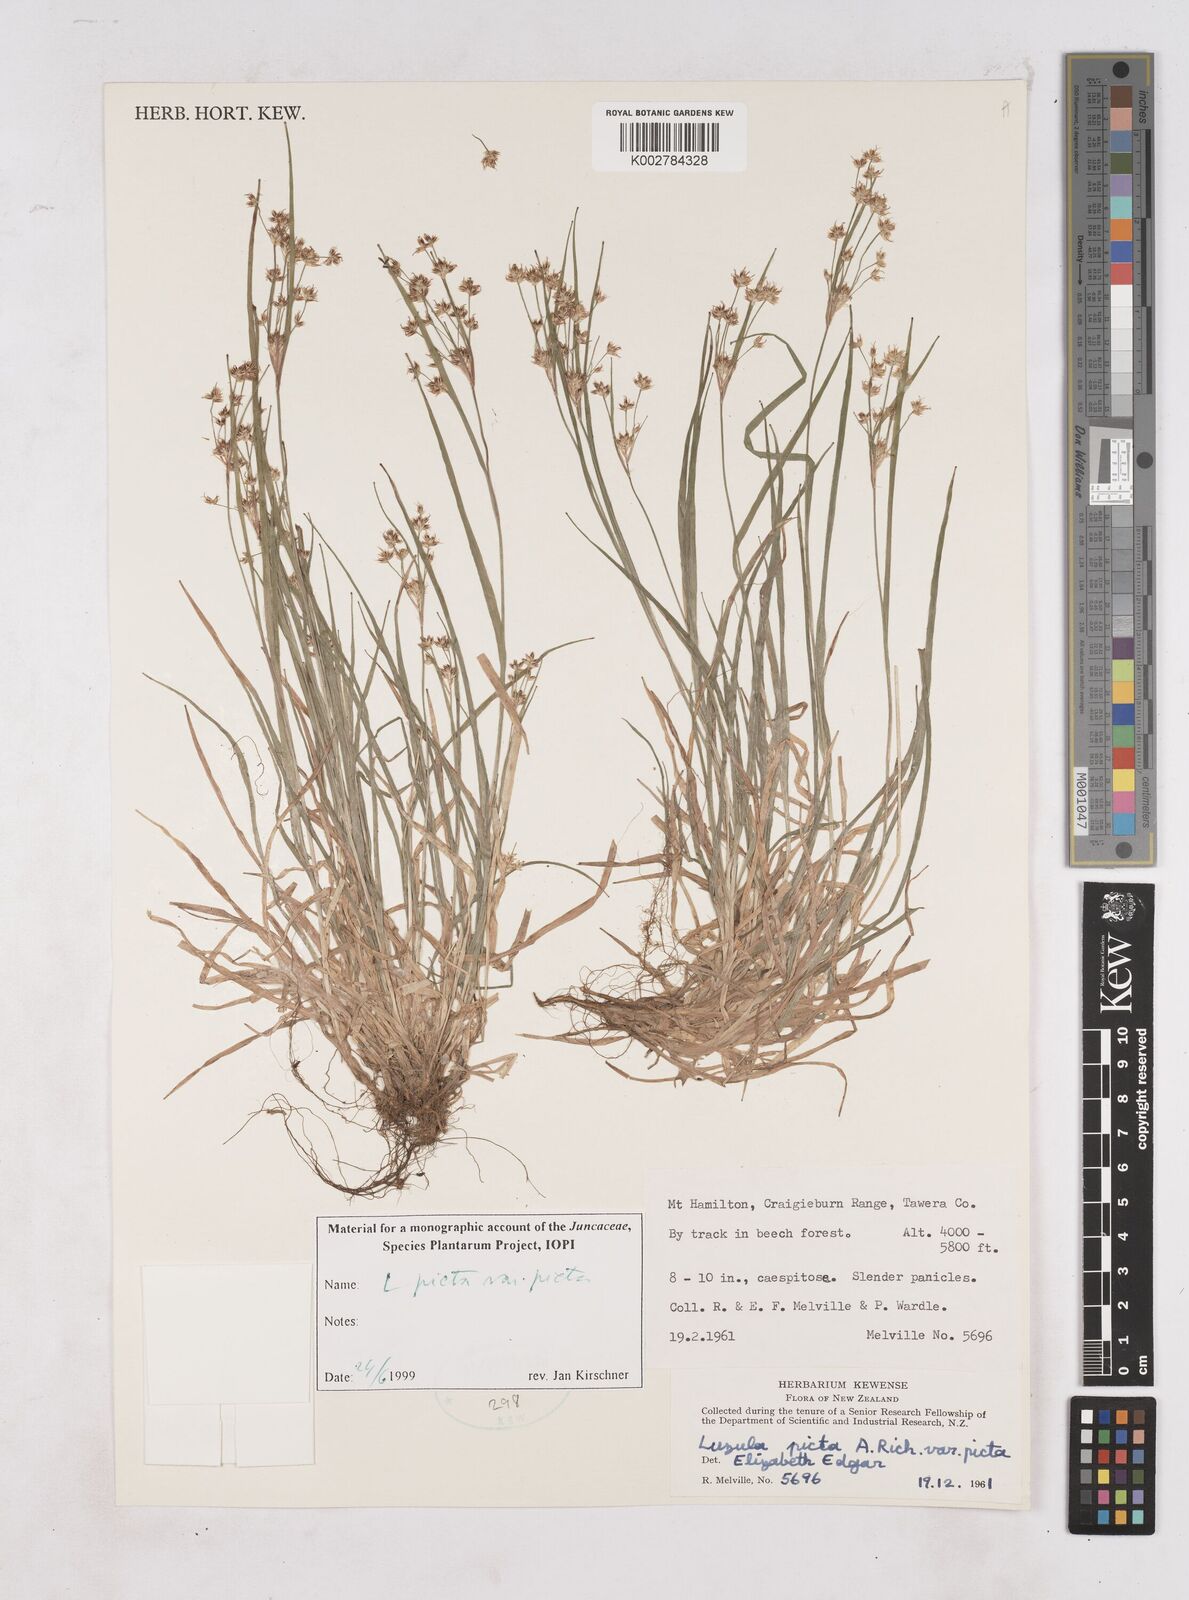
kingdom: Plantae
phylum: Tracheophyta
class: Liliopsida
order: Poales
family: Juncaceae
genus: Luzula
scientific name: Luzula picta
